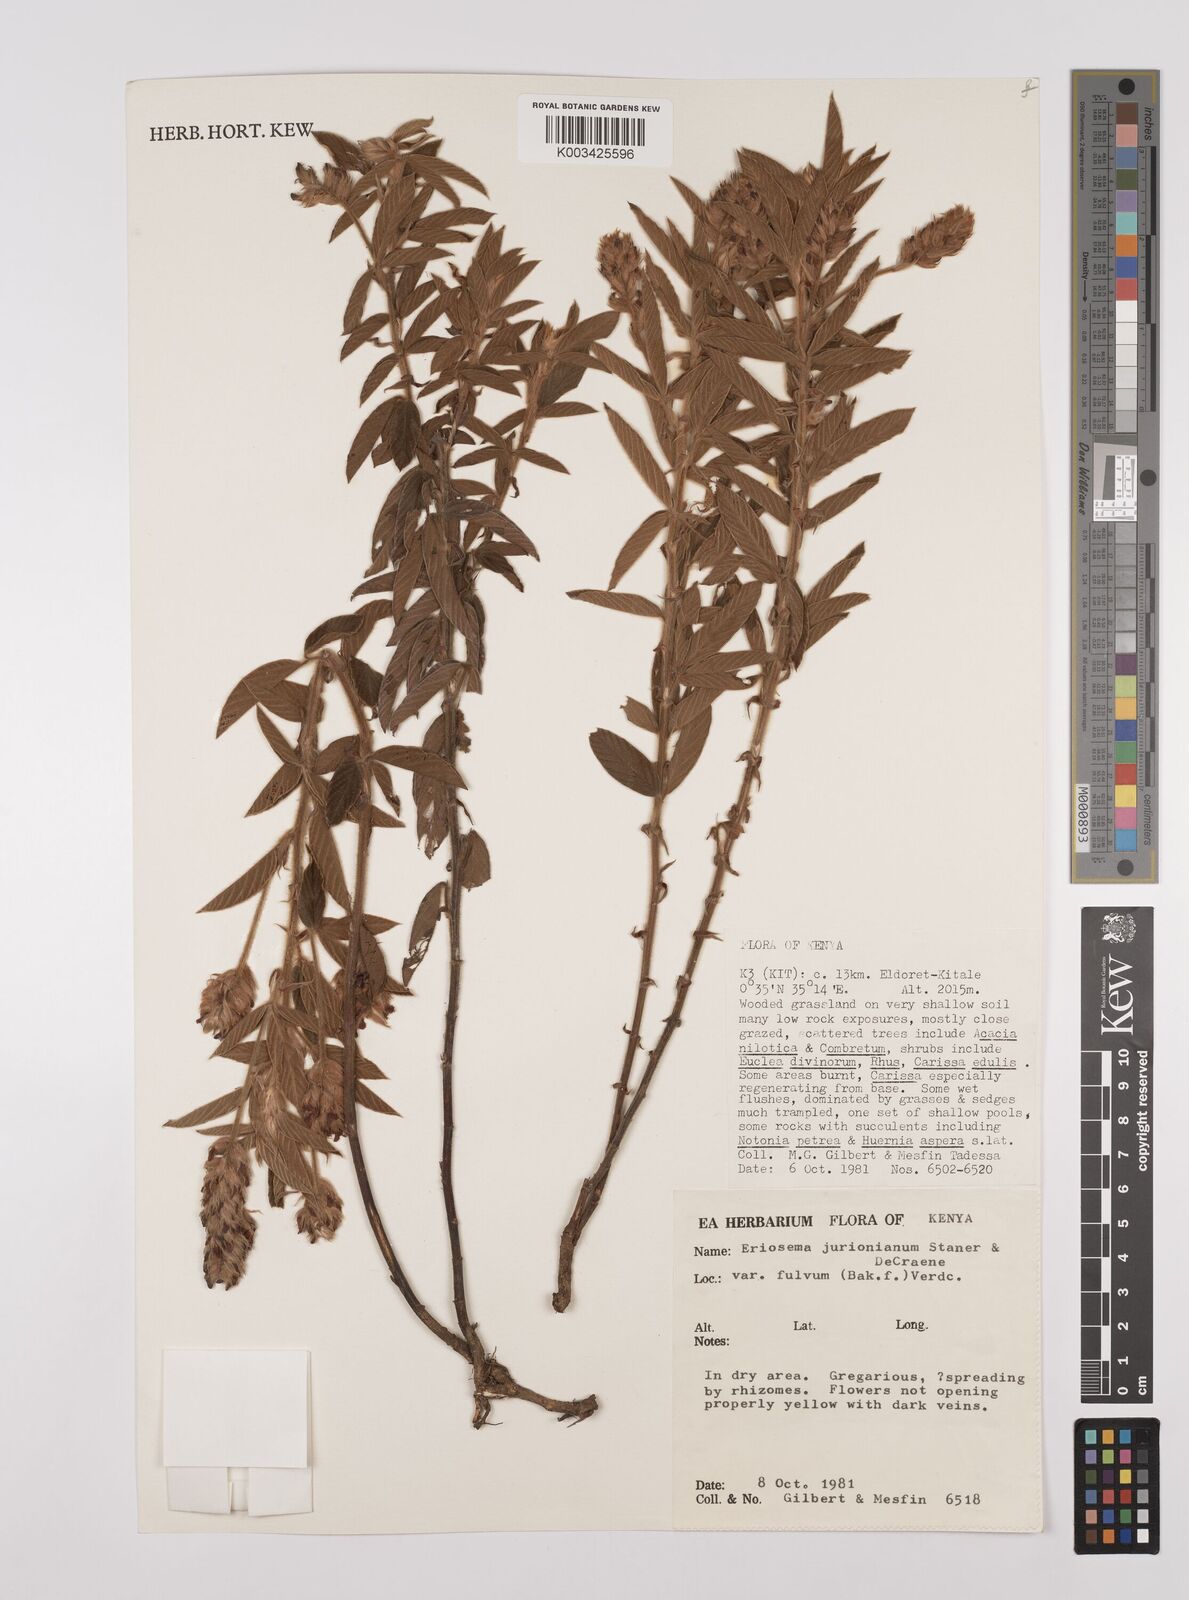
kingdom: Plantae
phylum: Tracheophyta
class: Magnoliopsida
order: Fabales
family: Fabaceae
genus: Eriosema
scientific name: Eriosema jurionianum
